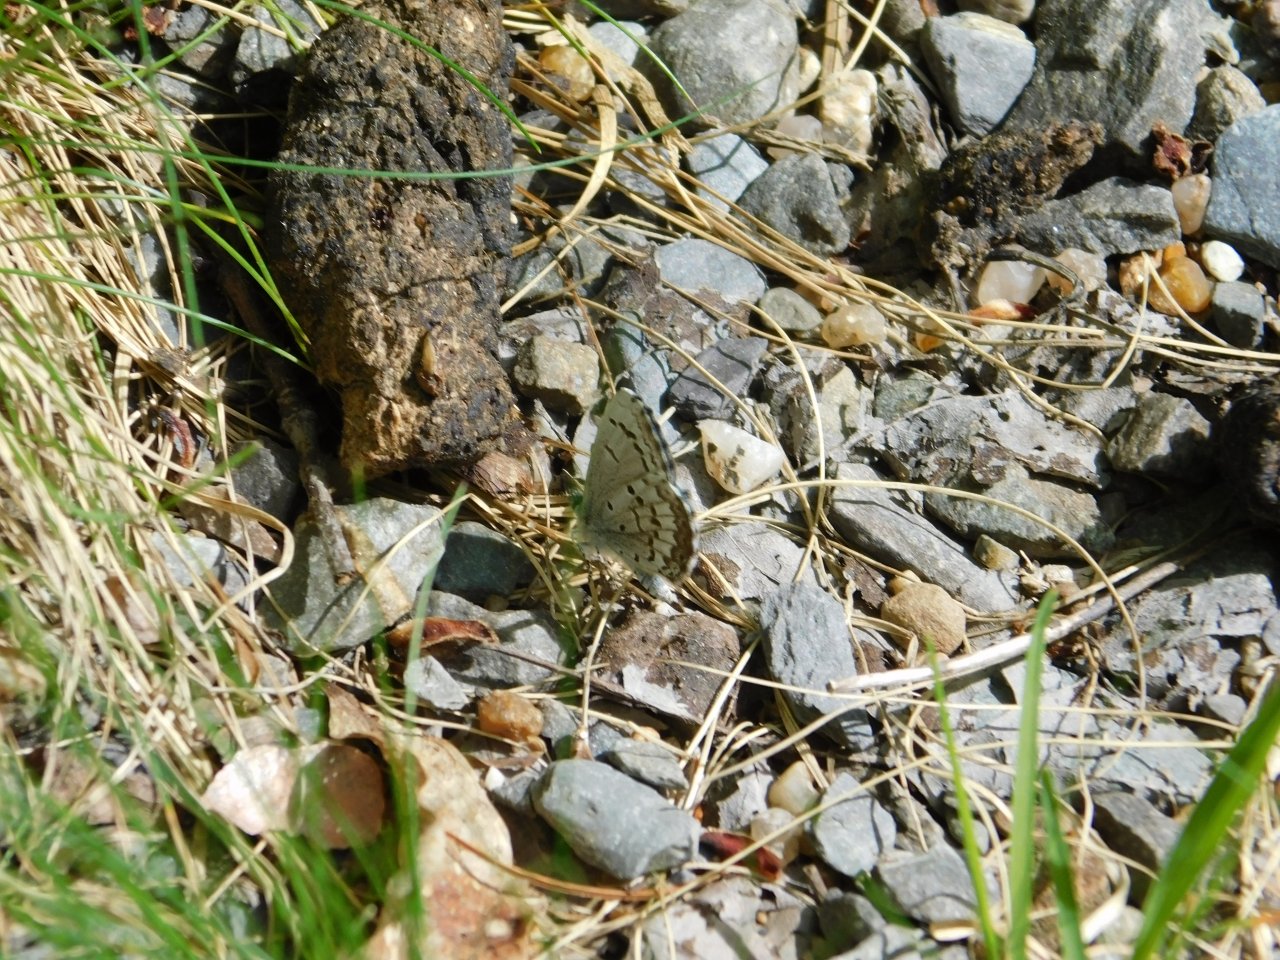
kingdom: Animalia
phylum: Arthropoda
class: Insecta
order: Lepidoptera
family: Lycaenidae
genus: Celastrina
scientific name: Celastrina lucia
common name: Northern Spring Azure
